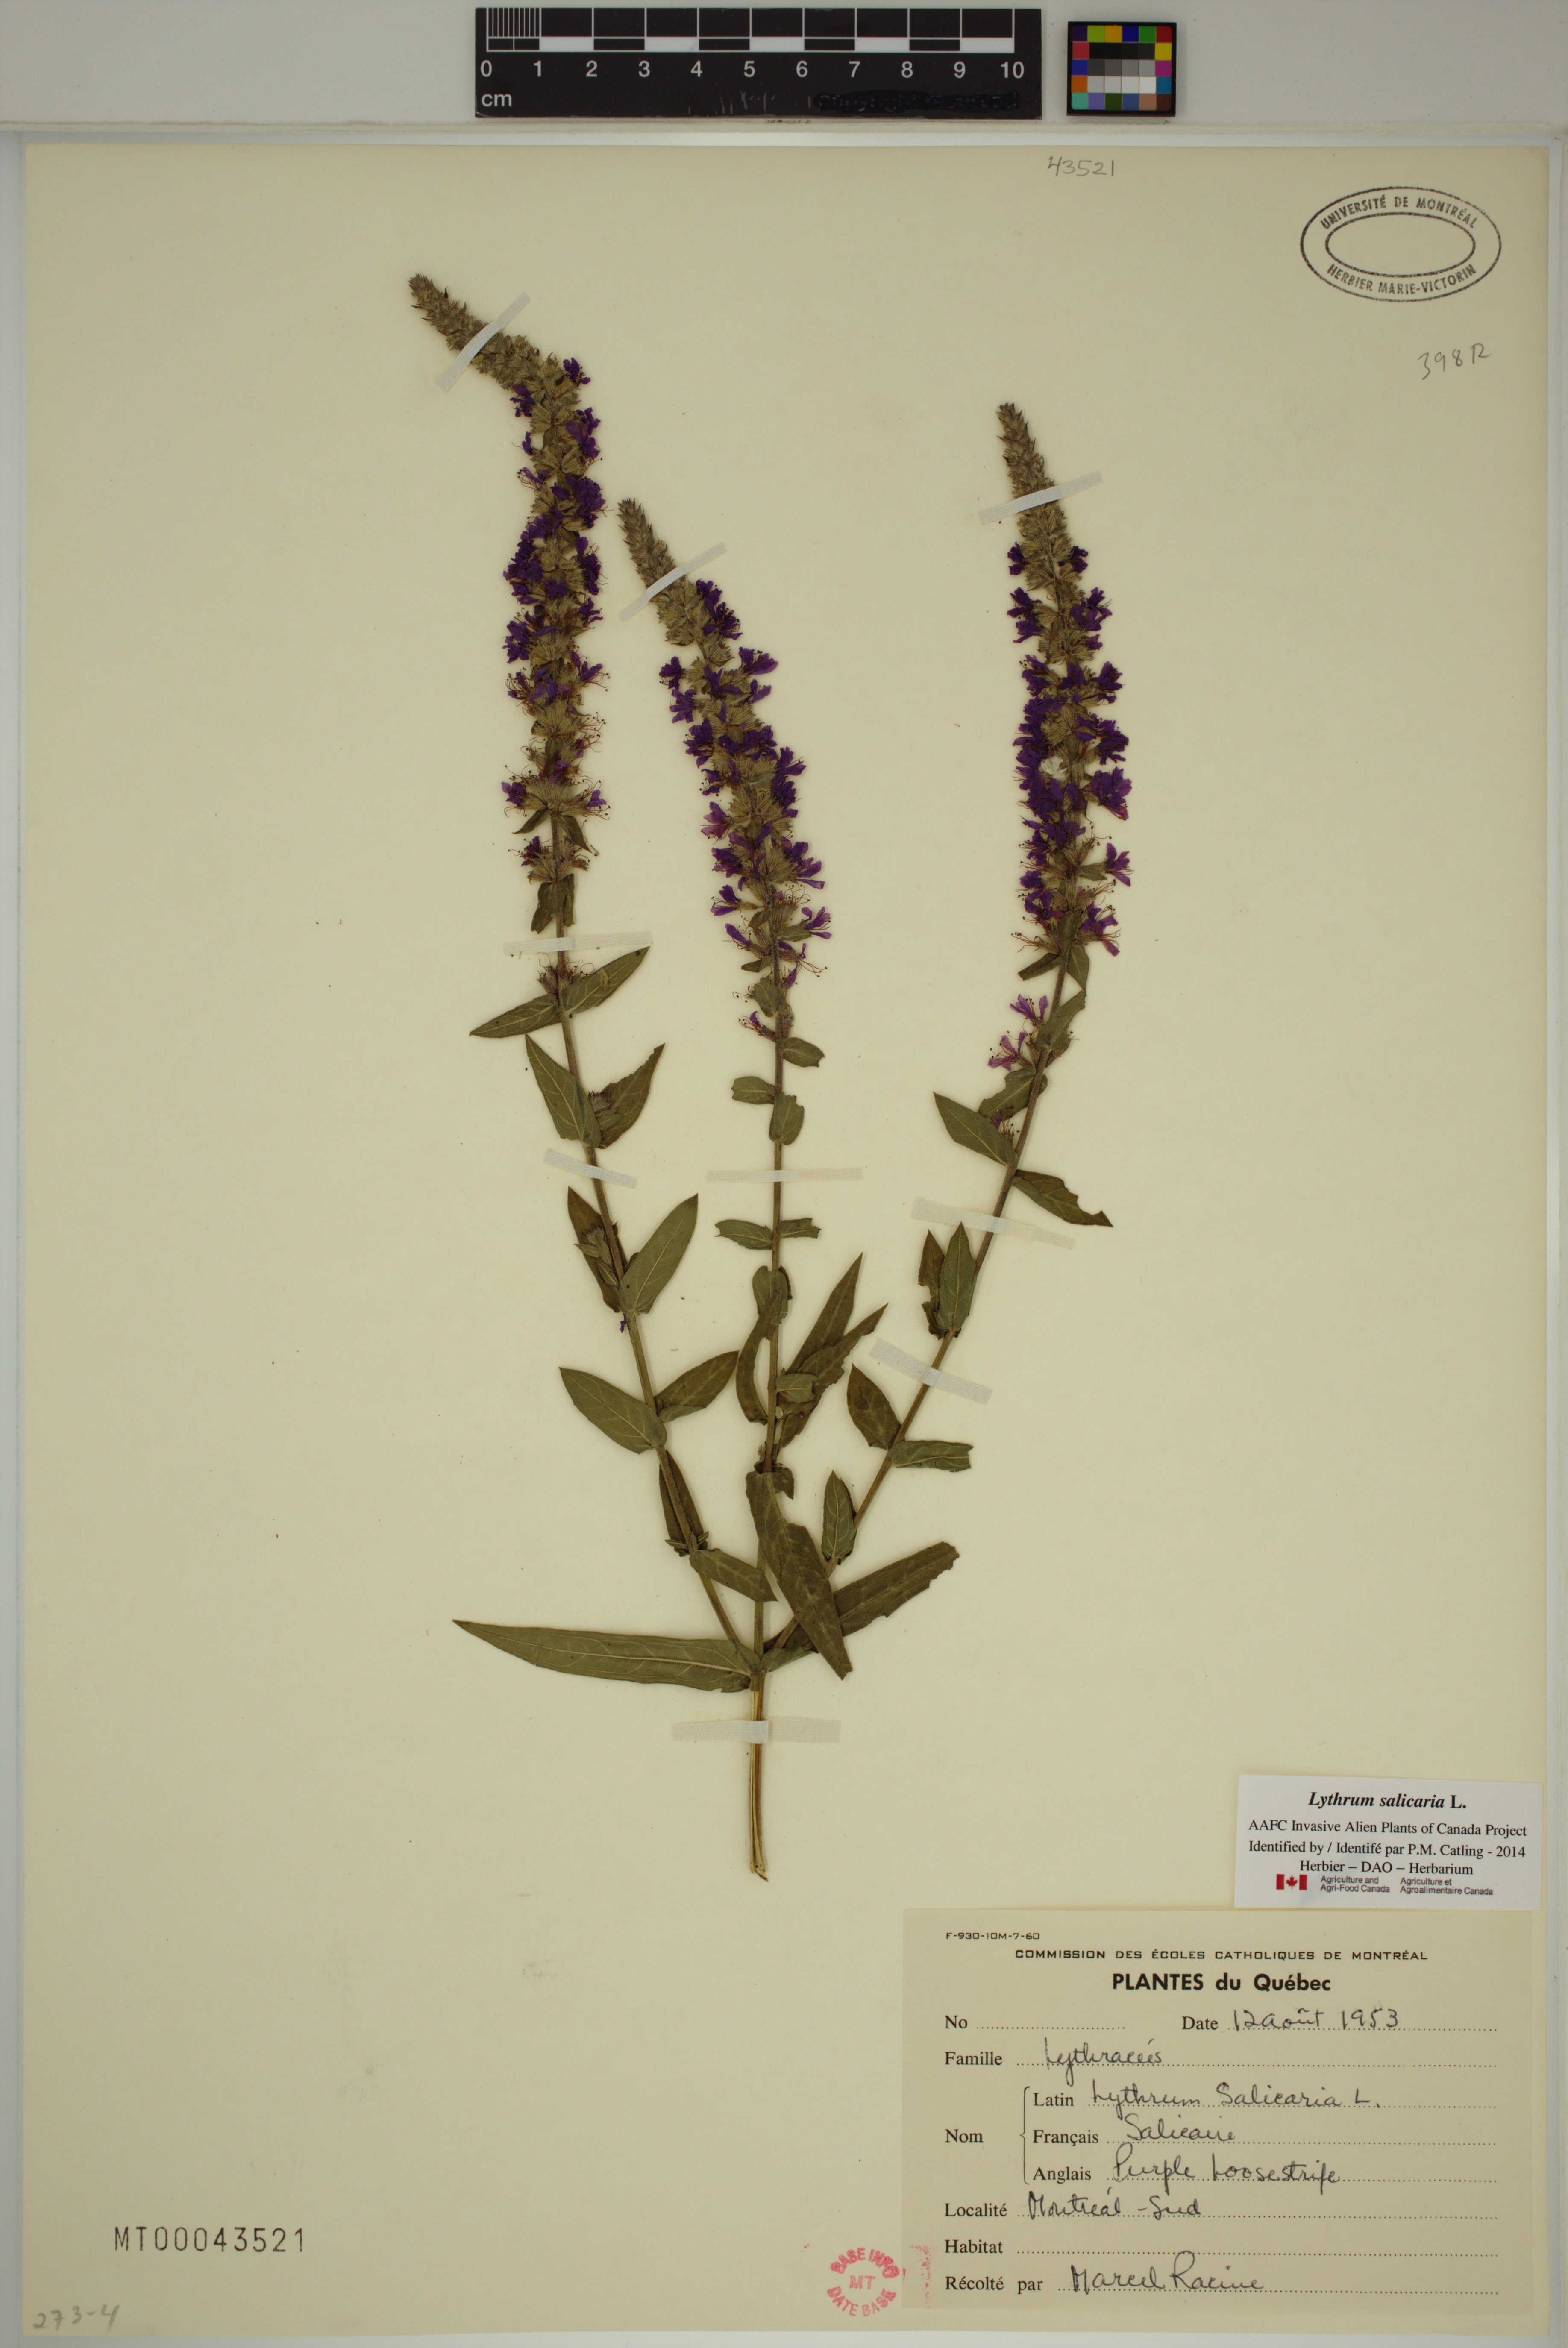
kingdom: Plantae
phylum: Tracheophyta
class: Magnoliopsida
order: Myrtales
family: Lythraceae
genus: Lythrum
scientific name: Lythrum salicaria
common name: Purple loosestrife
